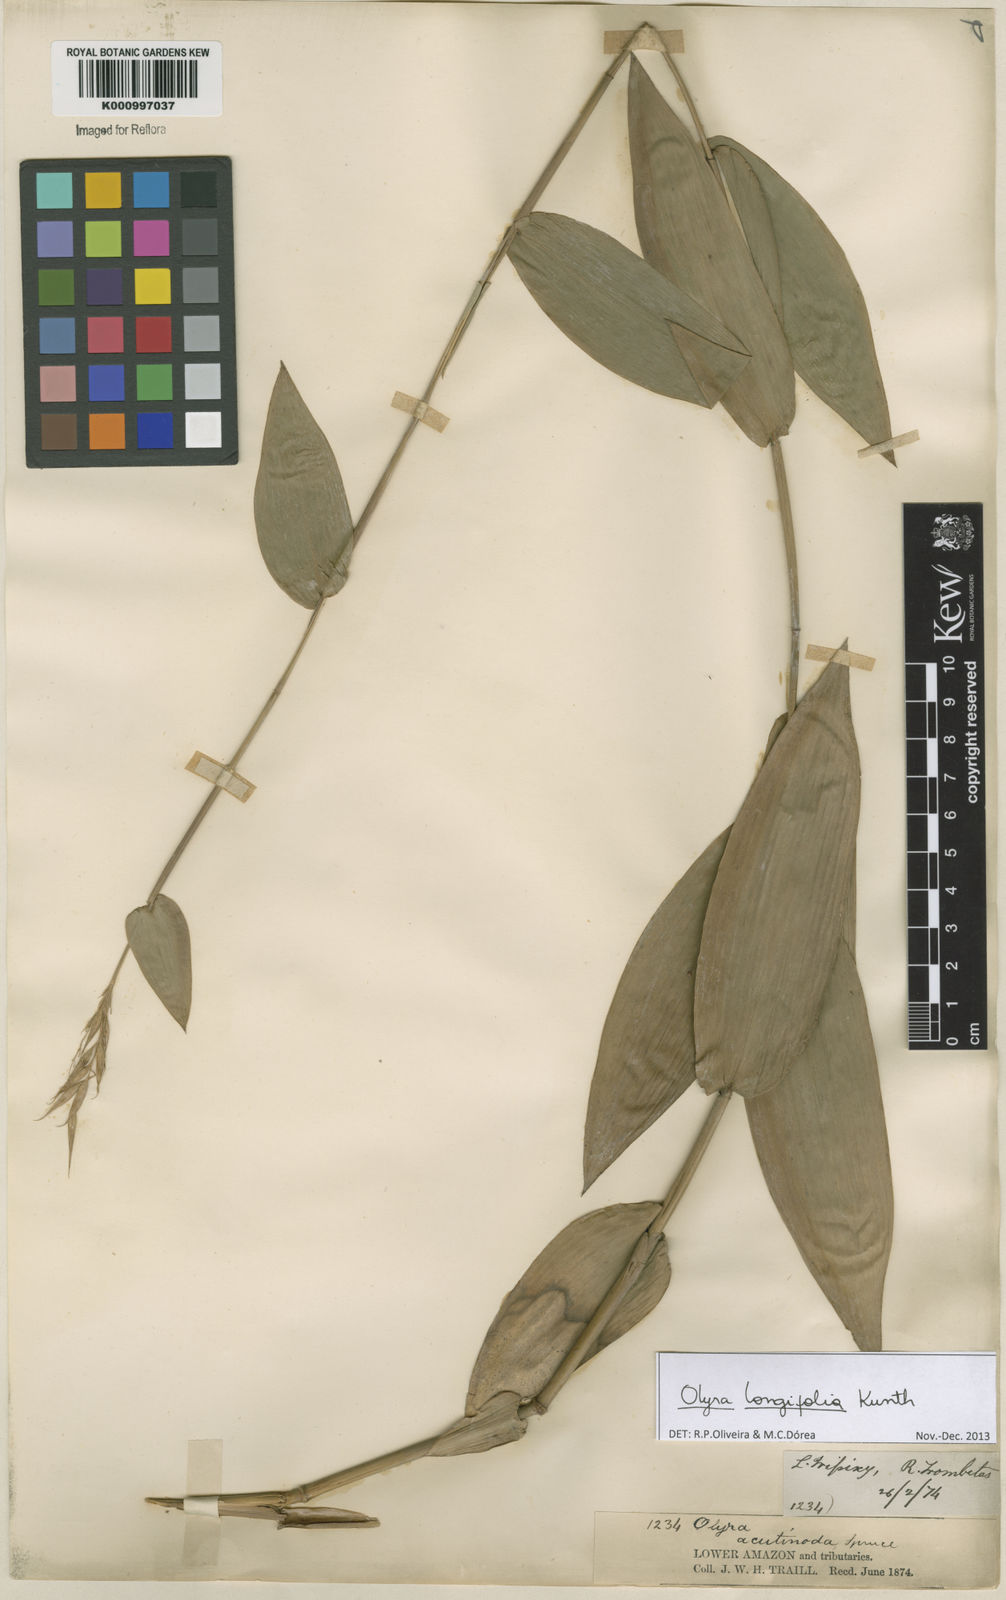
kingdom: Plantae
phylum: Tracheophyta
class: Liliopsida
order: Poales
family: Poaceae
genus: Olyra
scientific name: Olyra longifolia
